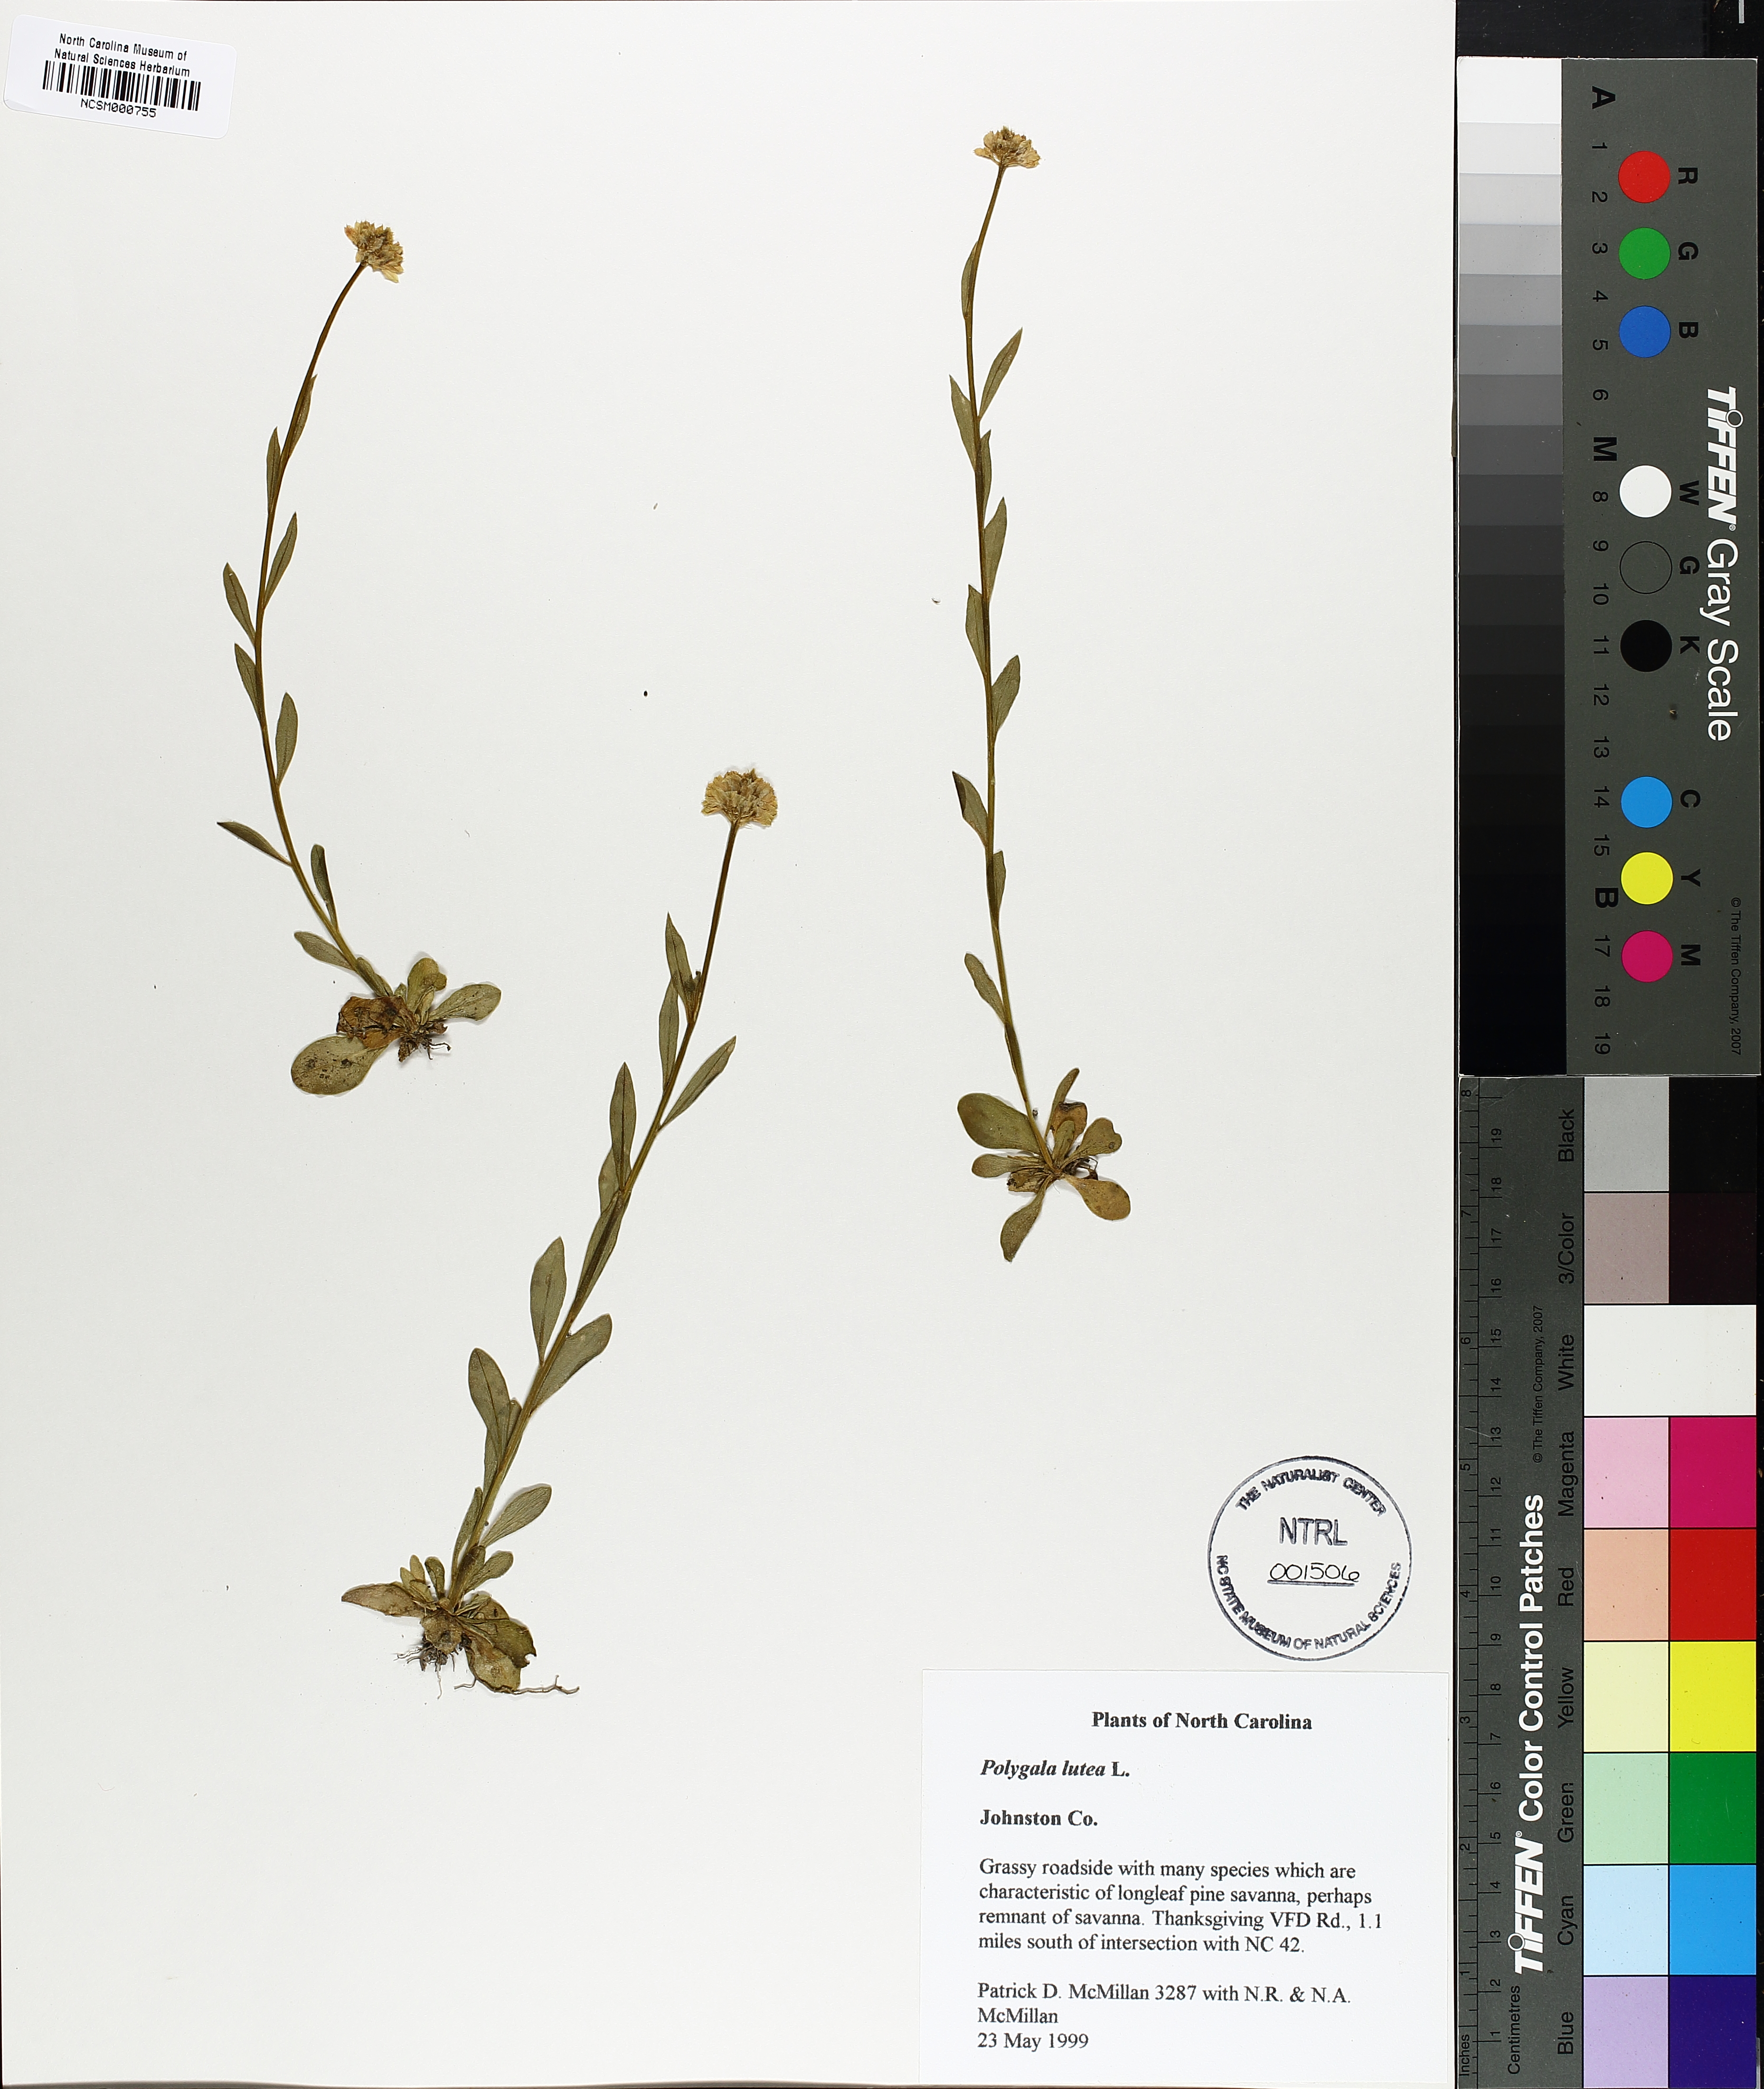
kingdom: Plantae
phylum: Tracheophyta
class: Magnoliopsida
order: Fabales
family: Polygalaceae
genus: Polygala
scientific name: Polygala lutea
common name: Orange milkwort
